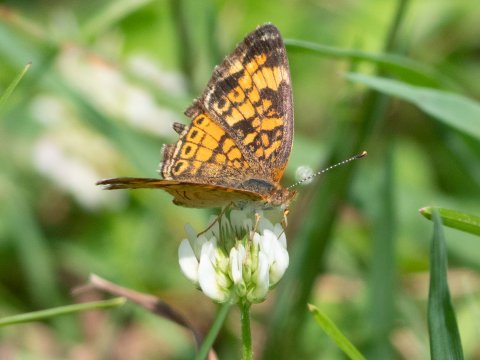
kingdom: Animalia
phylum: Arthropoda
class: Insecta
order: Lepidoptera
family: Nymphalidae
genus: Phyciodes
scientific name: Phyciodes
